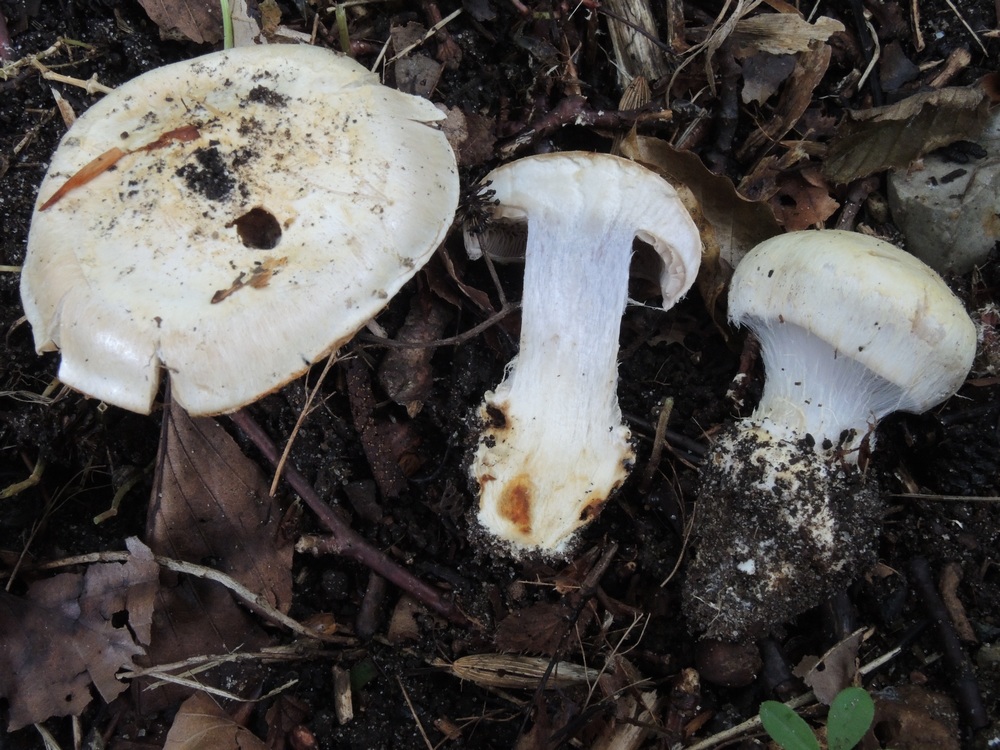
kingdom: Fungi
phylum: Basidiomycota
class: Agaricomycetes
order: Agaricales
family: Cortinariaceae
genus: Cortinarius
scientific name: Cortinarius foetens
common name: stribet slørhat
